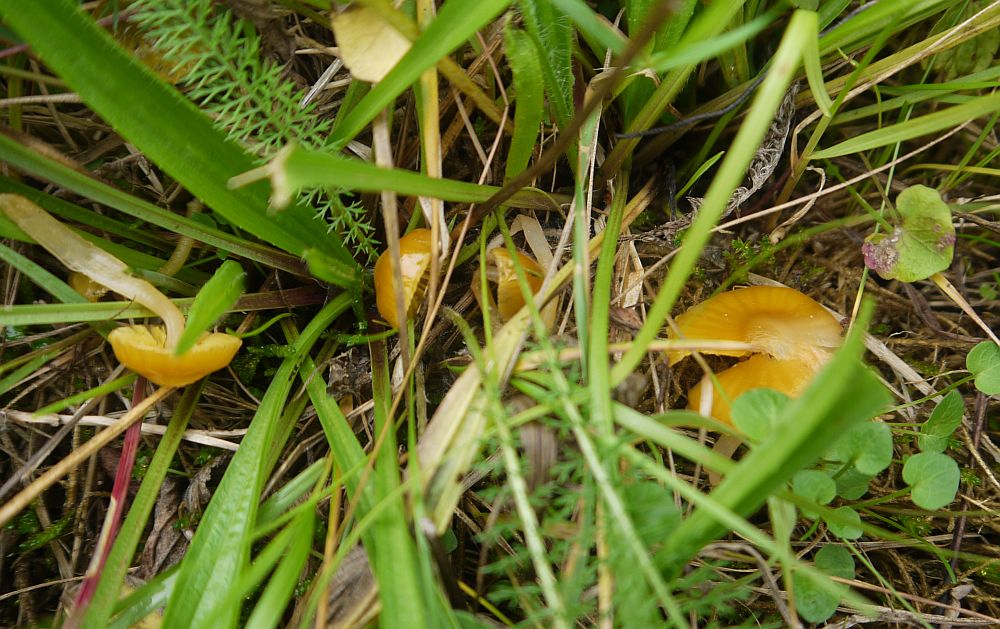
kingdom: Fungi
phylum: Basidiomycota
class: Agaricomycetes
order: Agaricales
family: Hygrophoraceae
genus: Gliophorus
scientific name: Gliophorus psittacinus
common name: papegøje-vokshat
